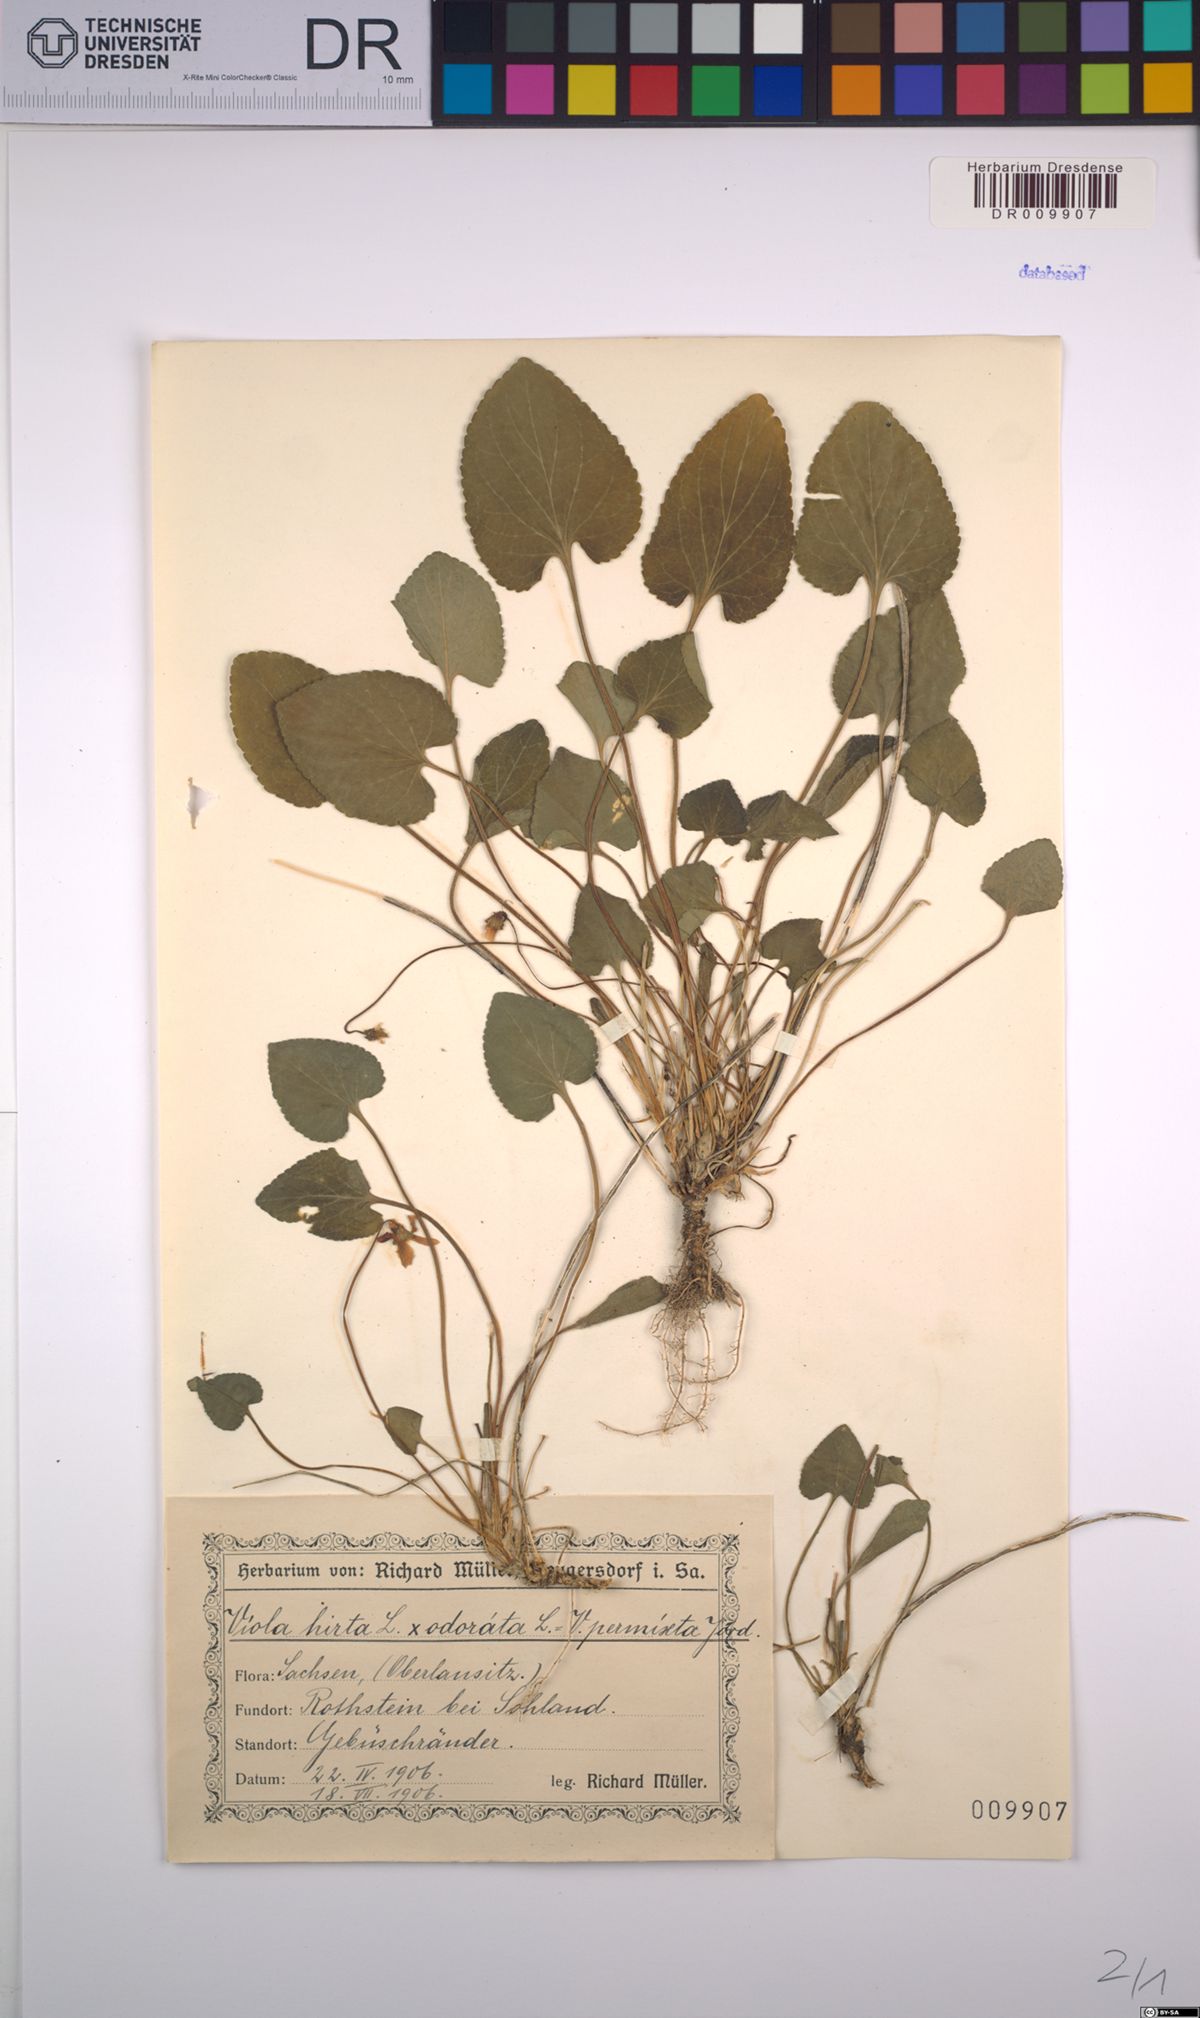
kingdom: Plantae
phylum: Tracheophyta
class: Magnoliopsida
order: Malpighiales
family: Violaceae
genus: Viola
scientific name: Viola scabra
